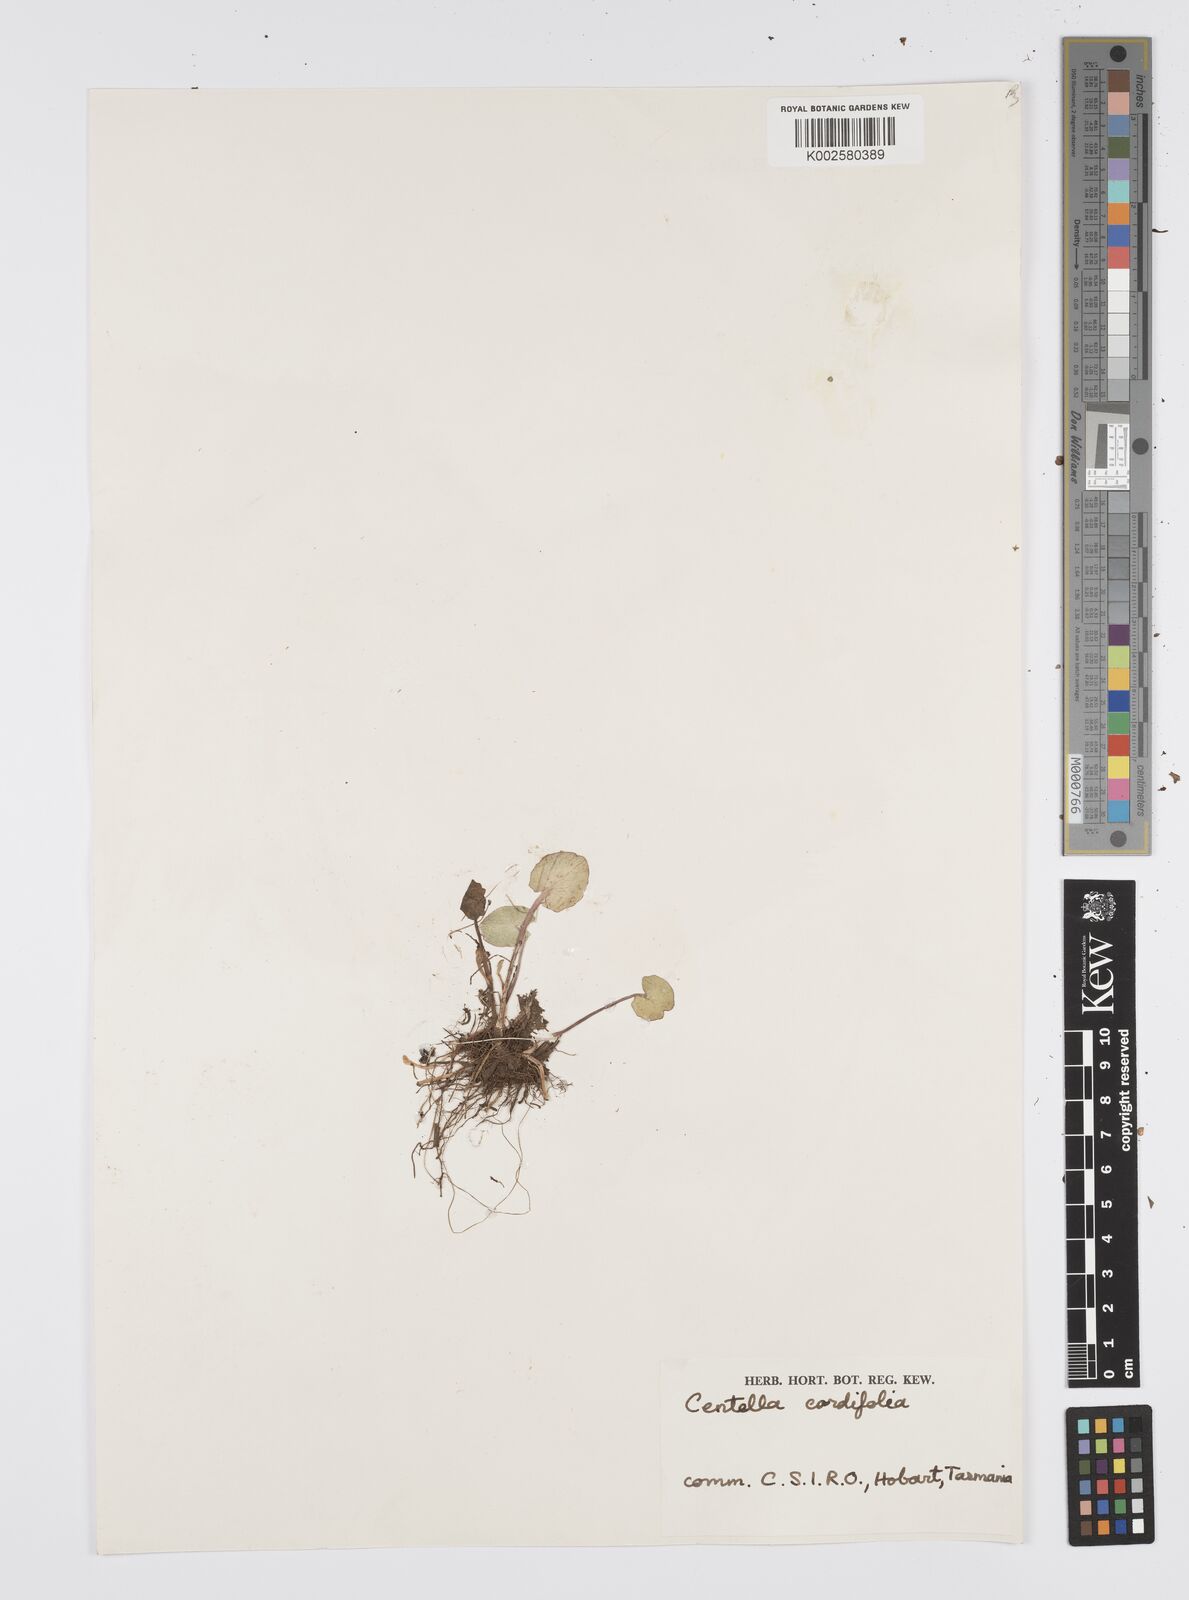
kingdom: Plantae
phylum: Tracheophyta
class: Magnoliopsida
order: Apiales
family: Apiaceae
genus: Centella
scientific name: Centella cordifolia
